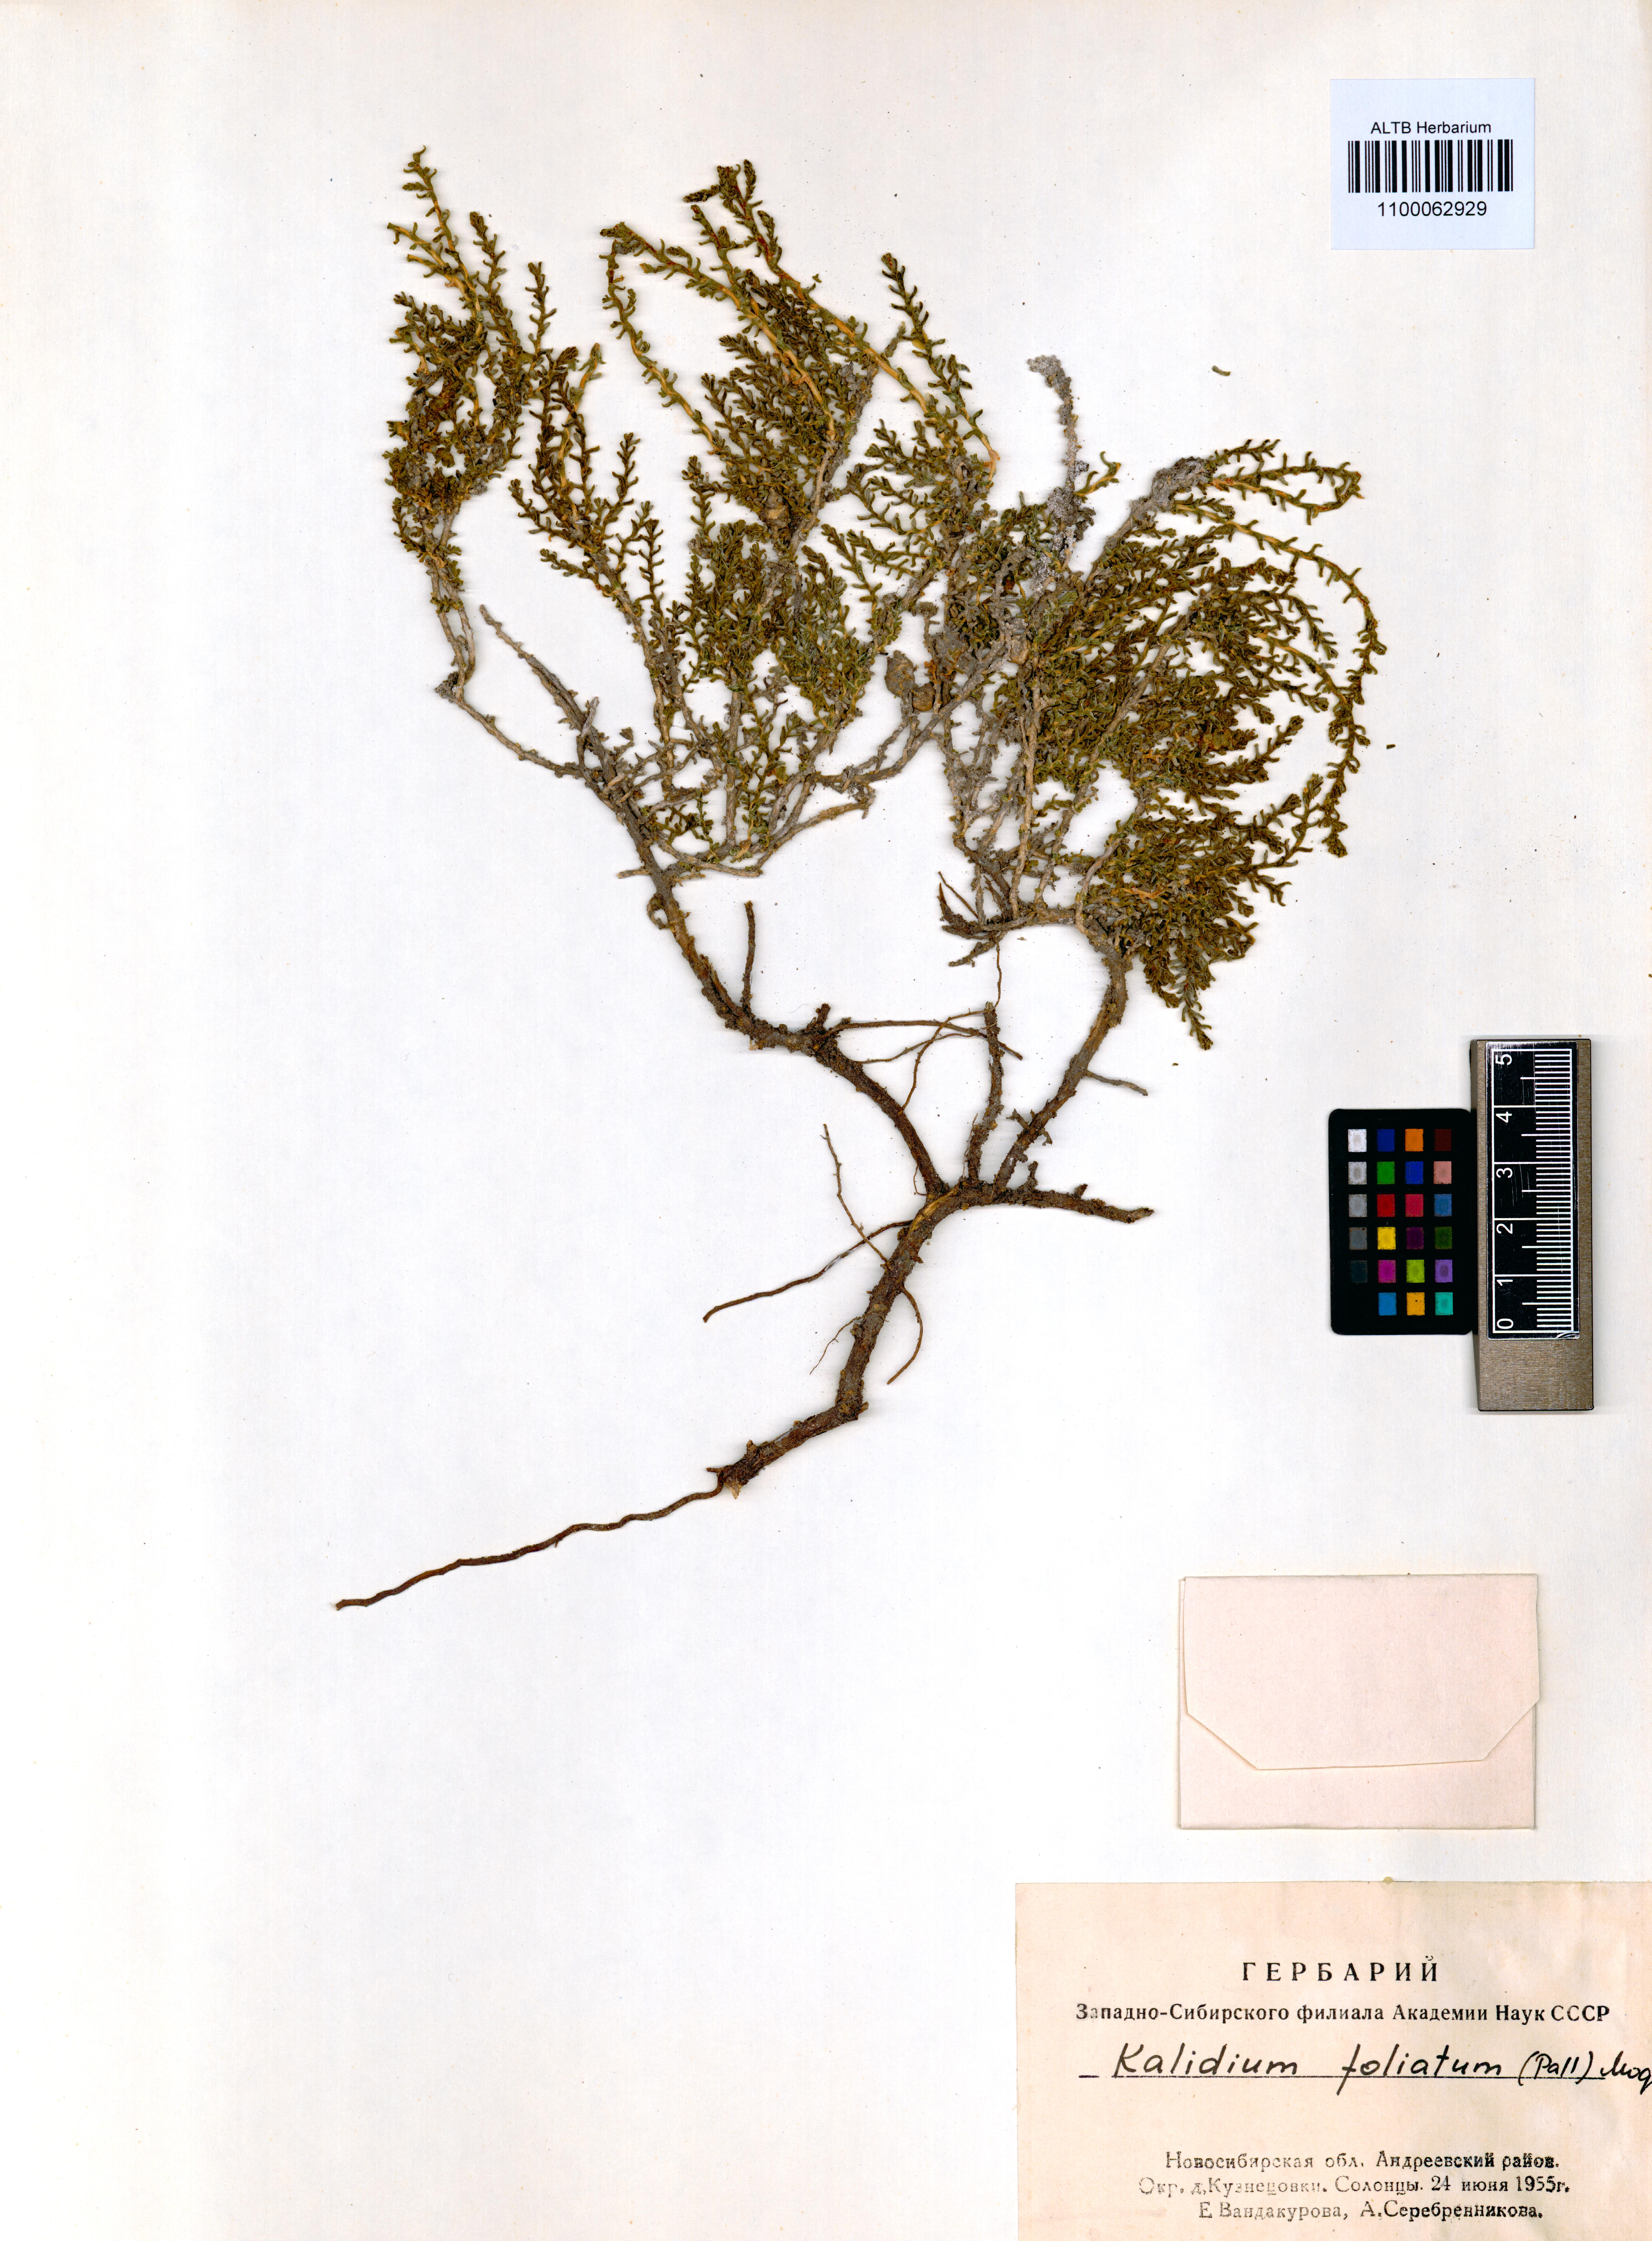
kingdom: Plantae
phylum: Tracheophyta
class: Magnoliopsida
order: Caryophyllales
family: Amaranthaceae
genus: Kalidium
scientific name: Kalidium foliatum
